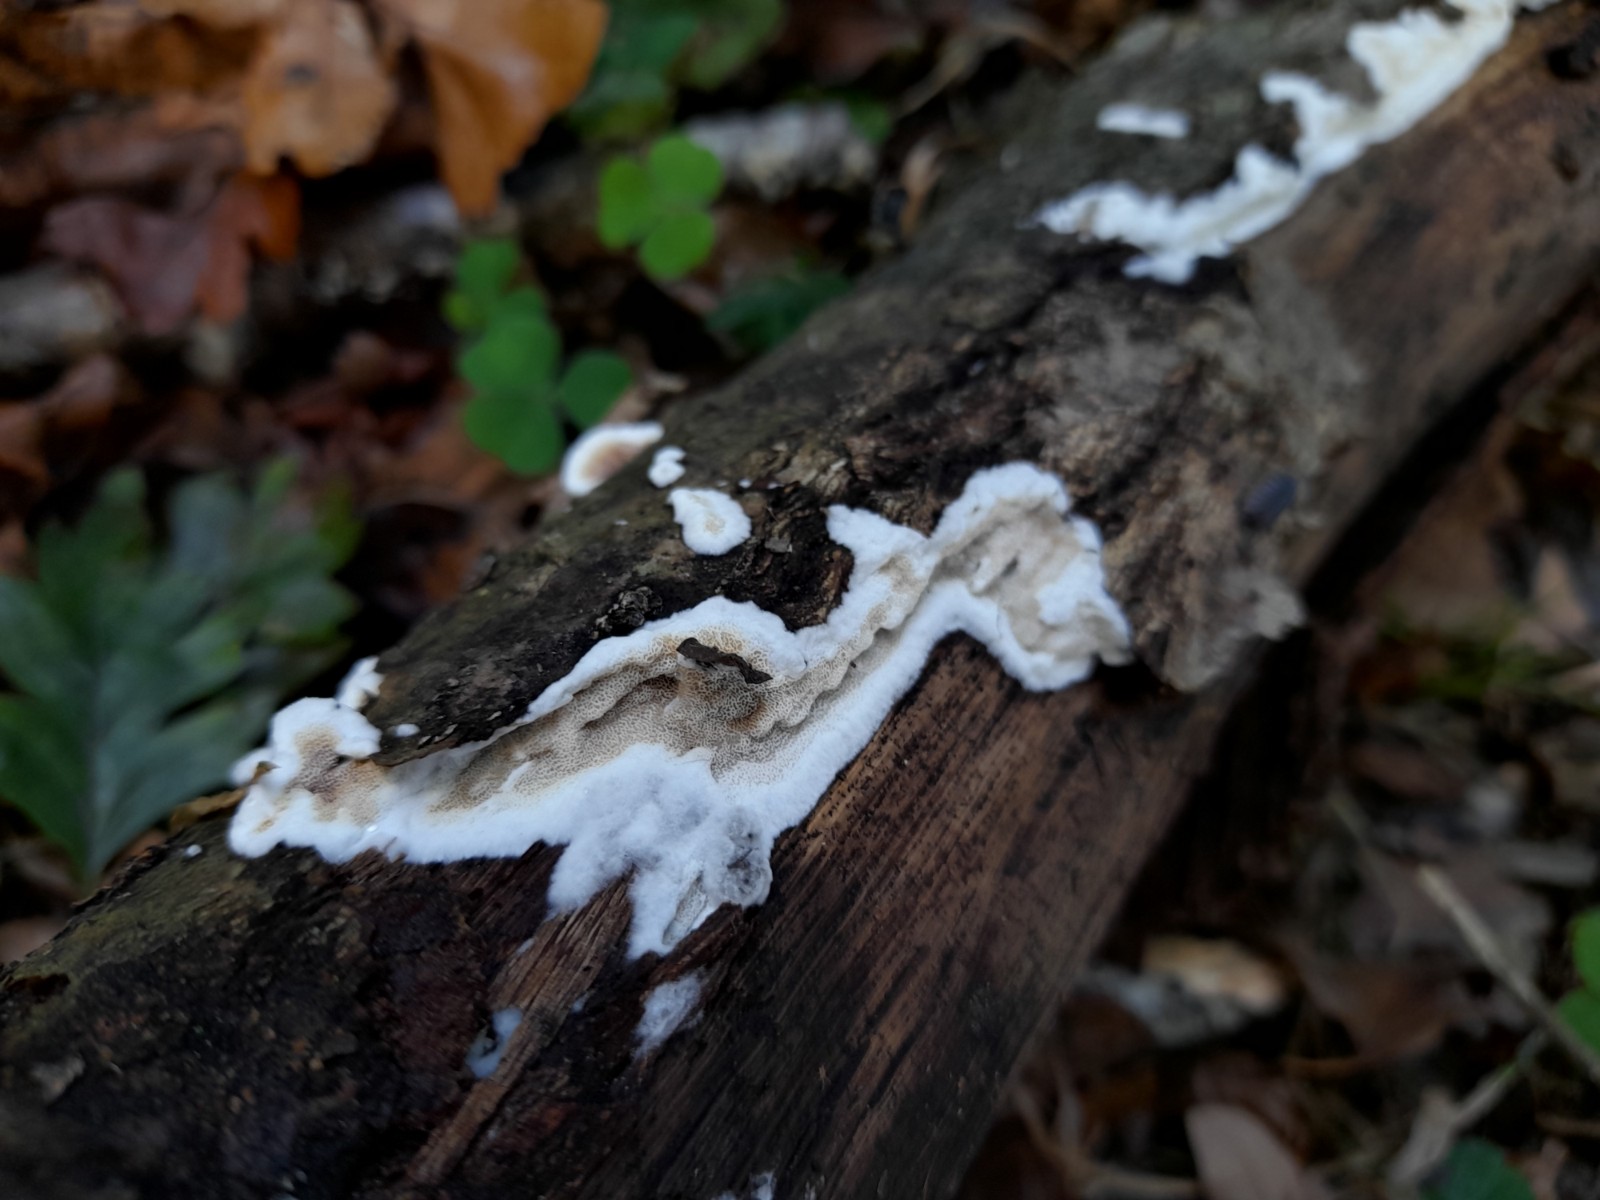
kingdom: Fungi
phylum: Basidiomycota
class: Agaricomycetes
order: Polyporales
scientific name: Polyporales
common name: poresvampordenen
